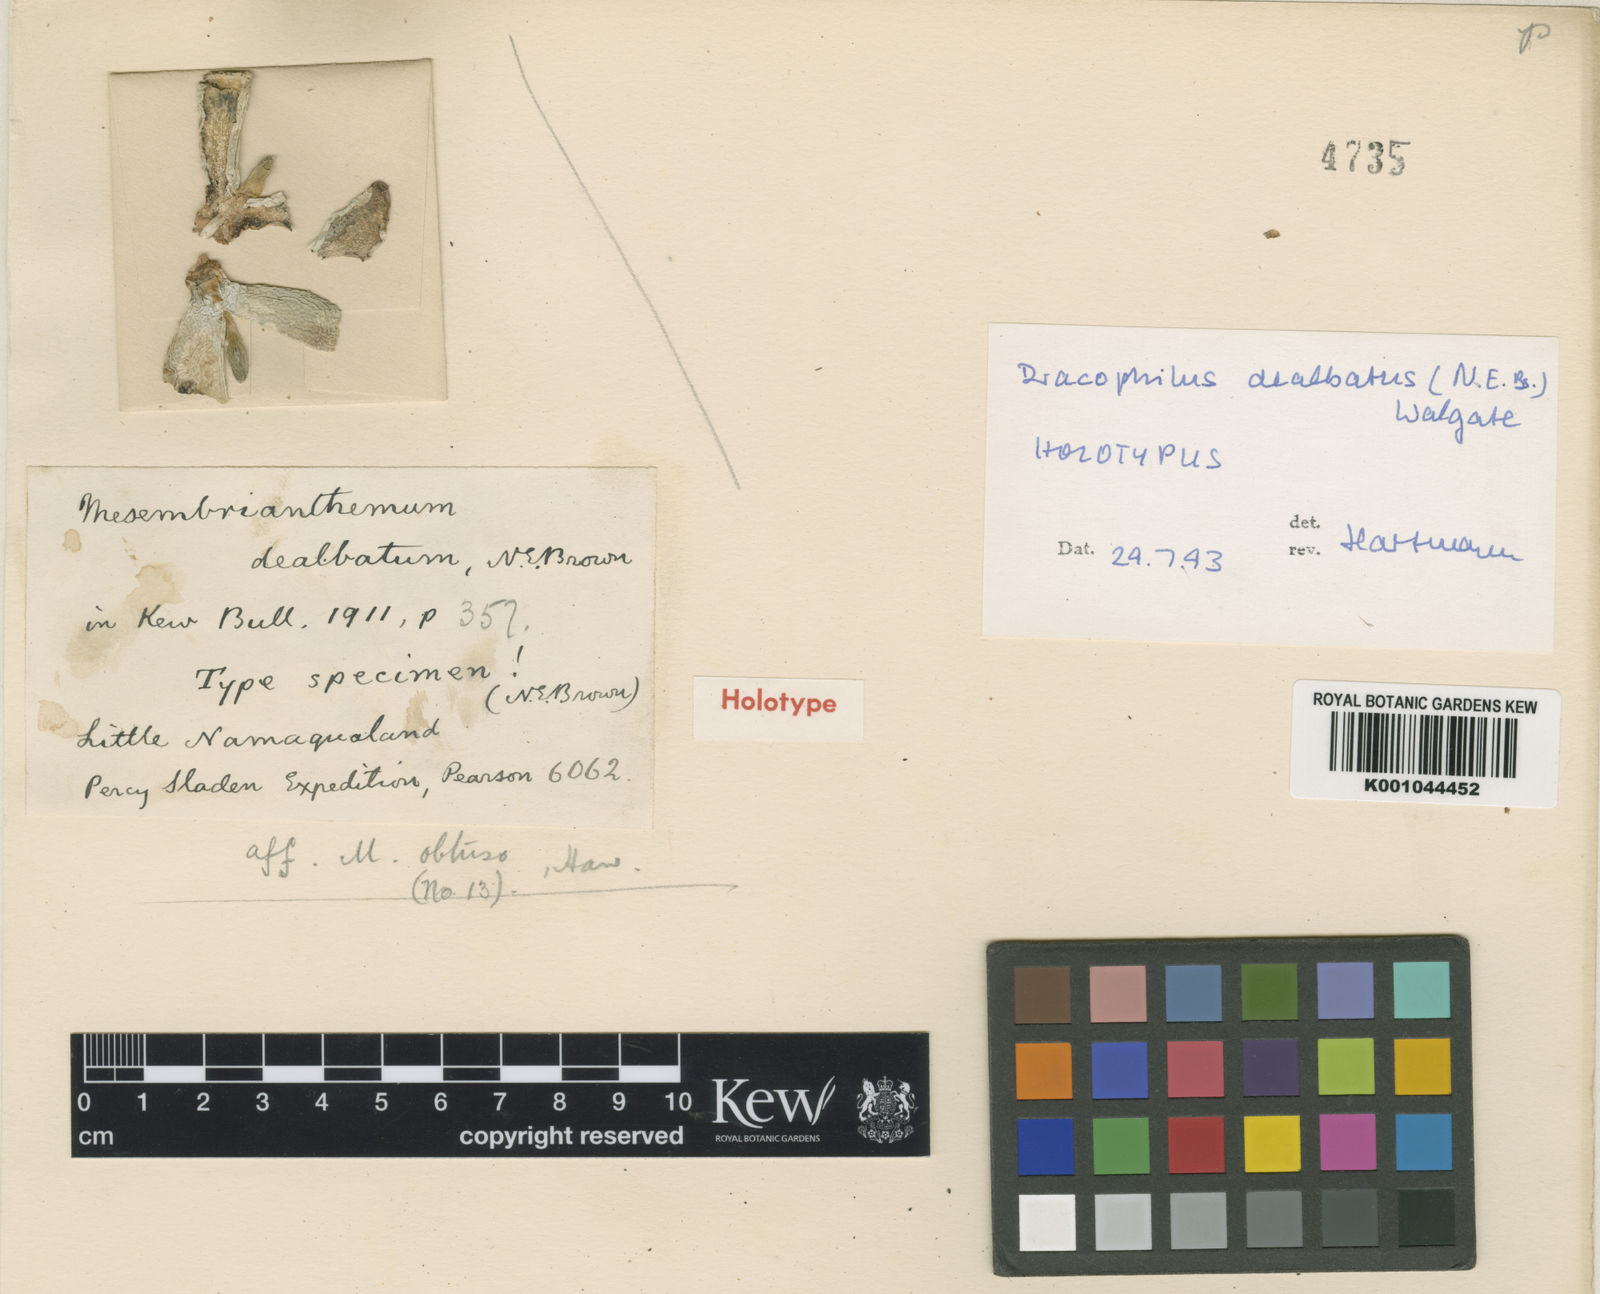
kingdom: Plantae
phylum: Tracheophyta
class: Magnoliopsida
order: Caryophyllales
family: Aizoaceae
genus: Dracophilus
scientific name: Dracophilus dealbatus
